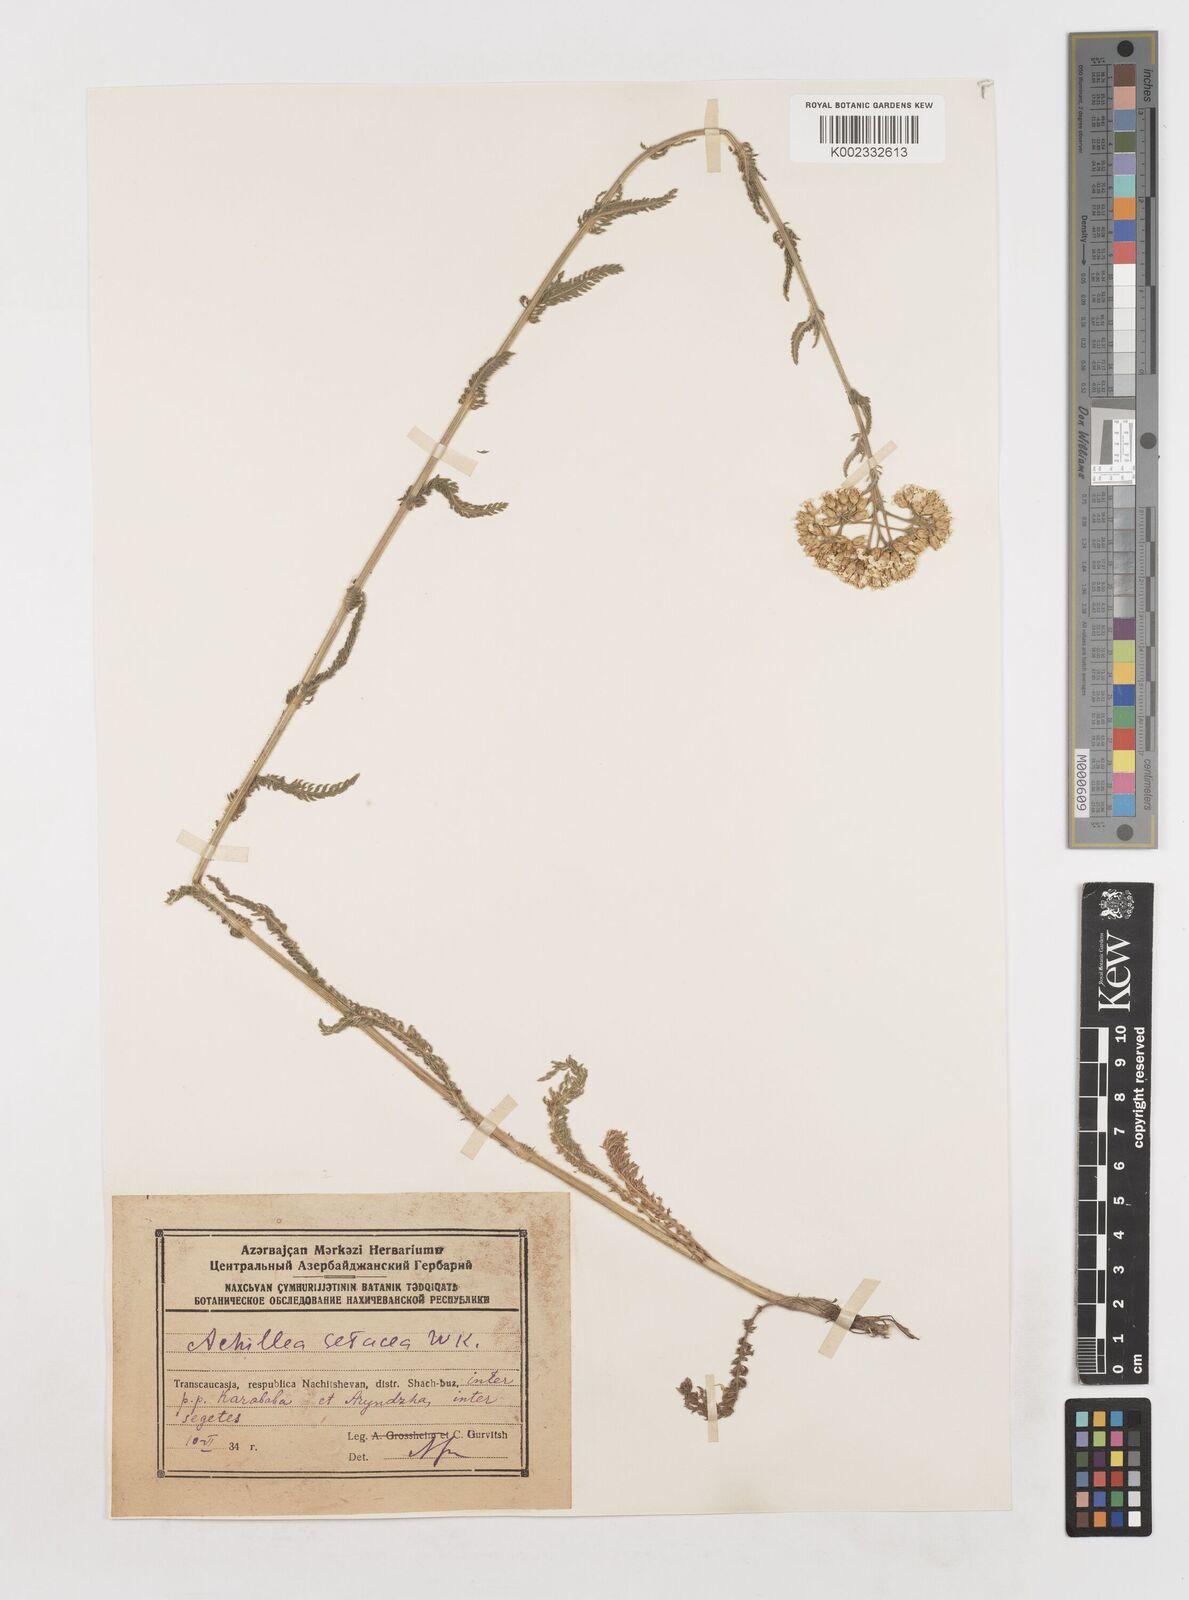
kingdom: Plantae
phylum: Tracheophyta
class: Magnoliopsida
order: Asterales
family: Asteraceae
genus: Achillea
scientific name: Achillea setacea
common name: Bristly yarrow
